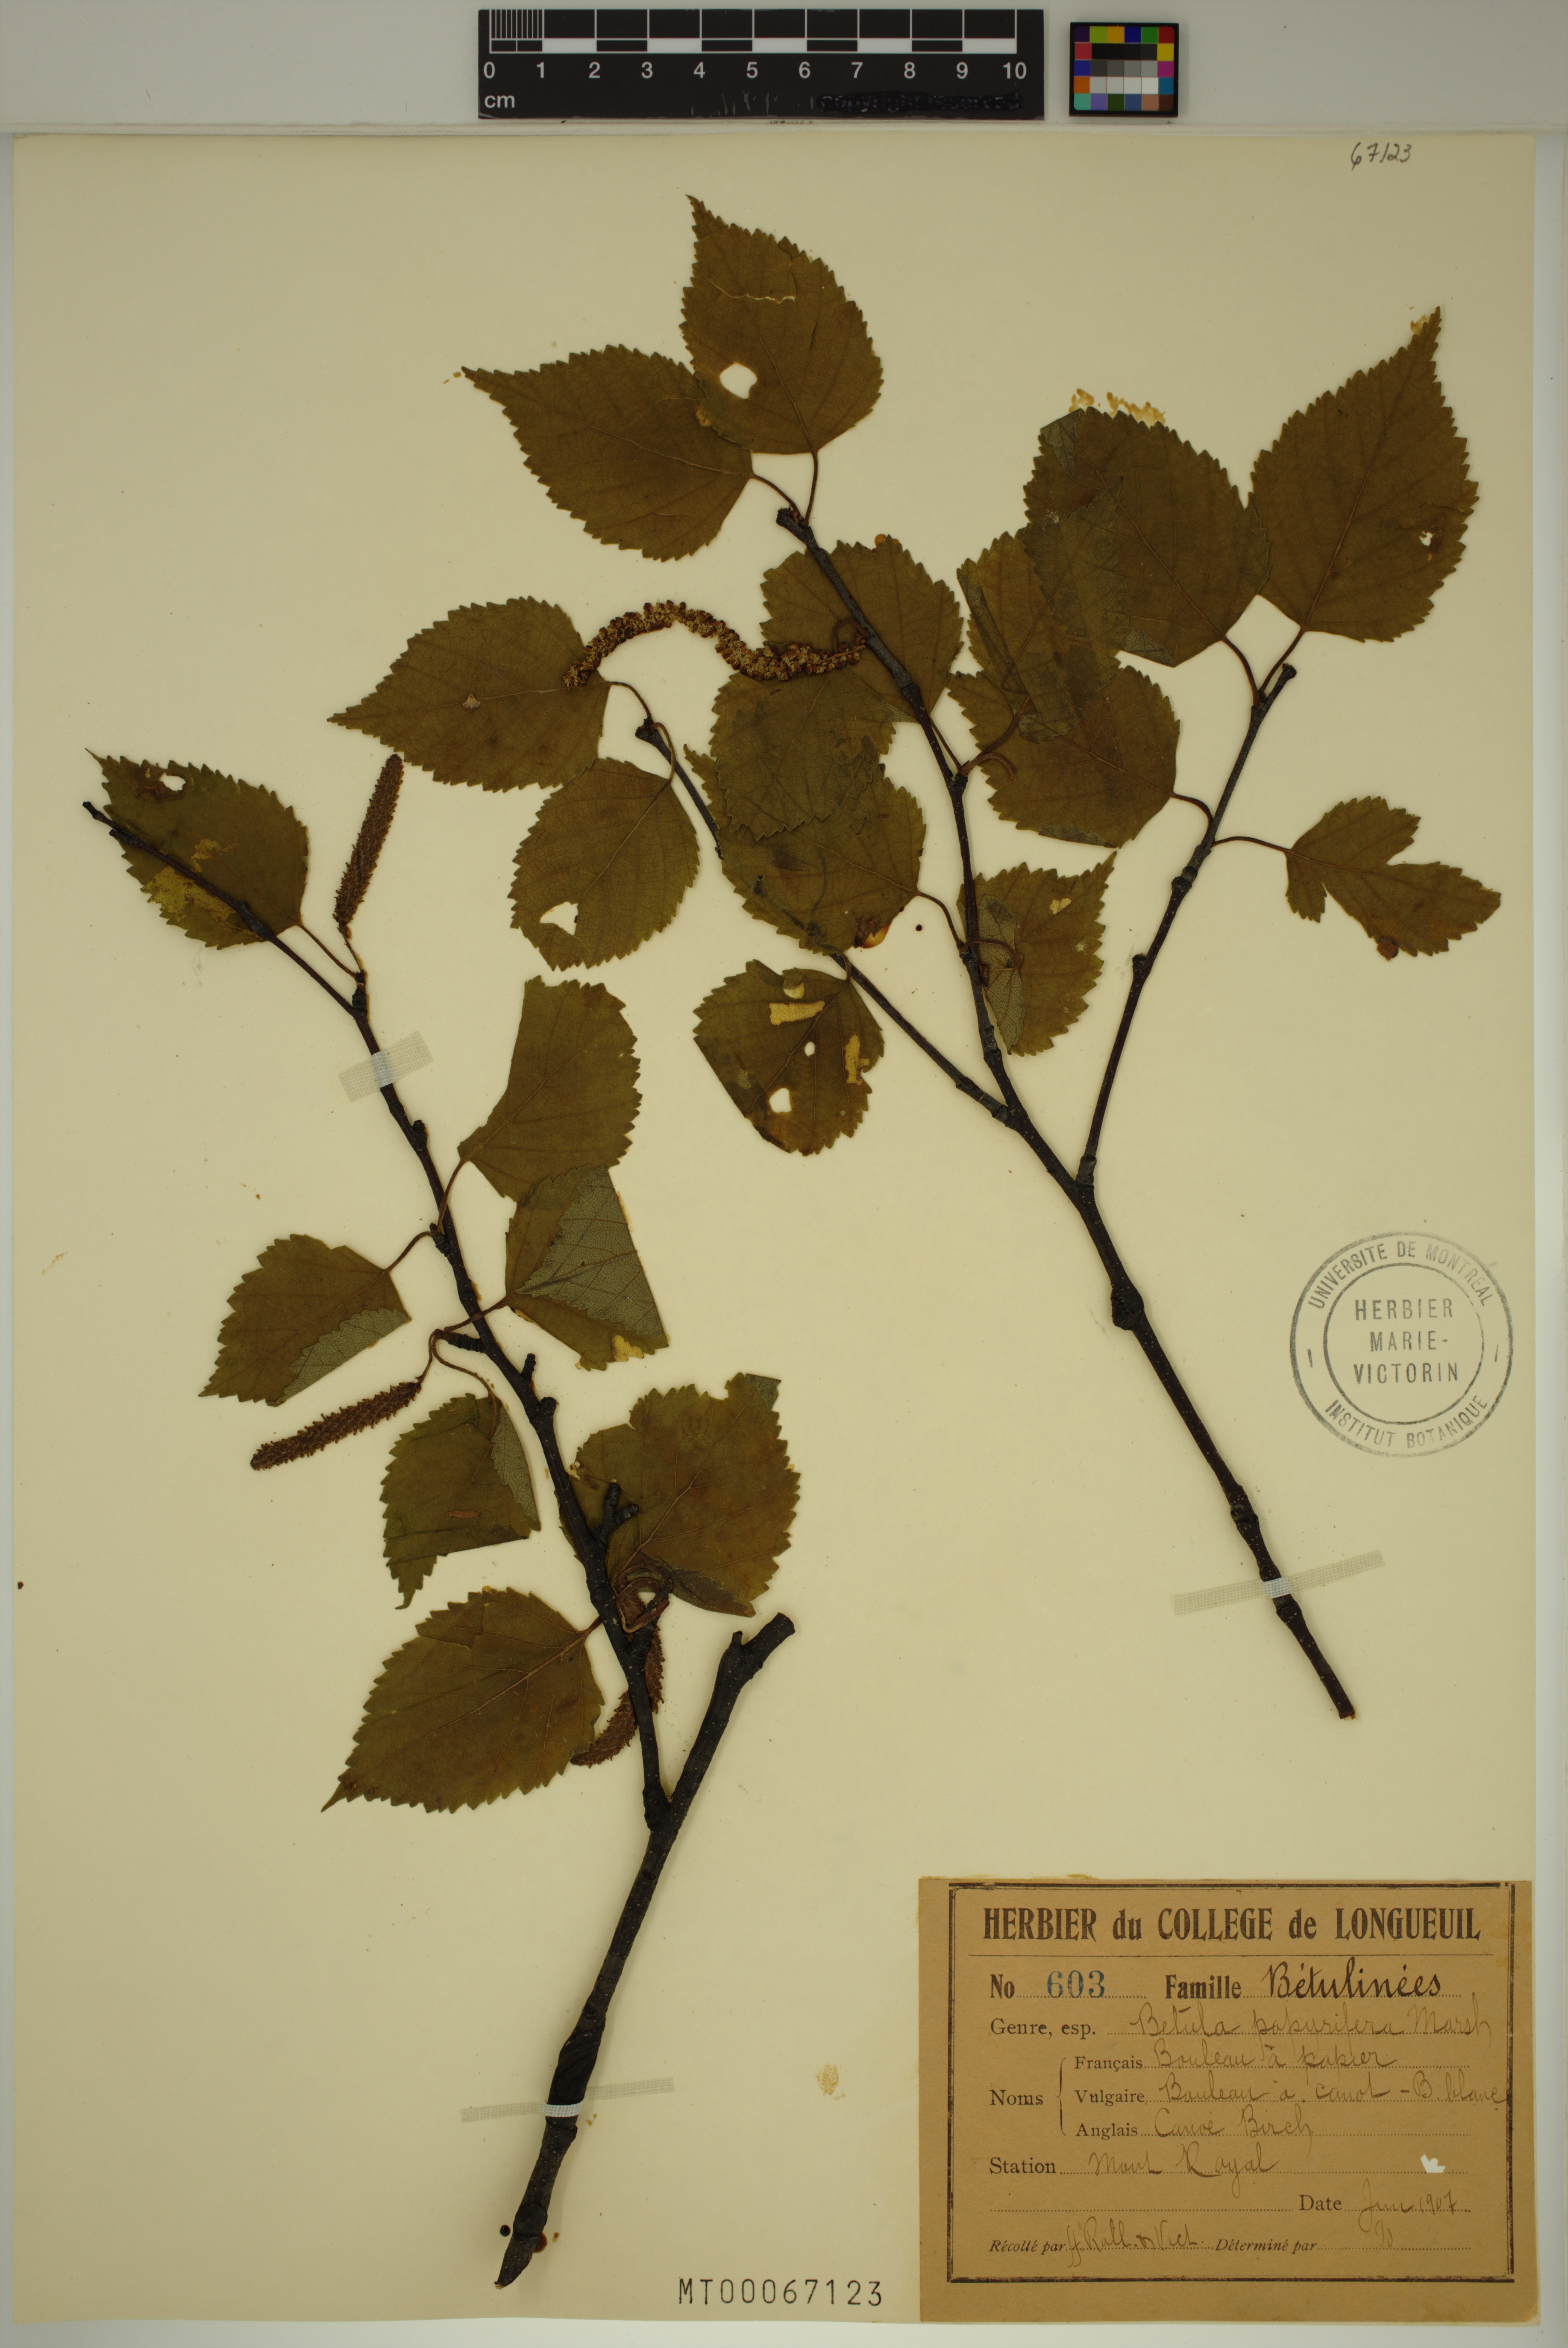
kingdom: Plantae
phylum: Tracheophyta
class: Magnoliopsida
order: Fagales
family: Betulaceae
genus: Betula
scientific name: Betula papyrifera
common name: Paper birch
